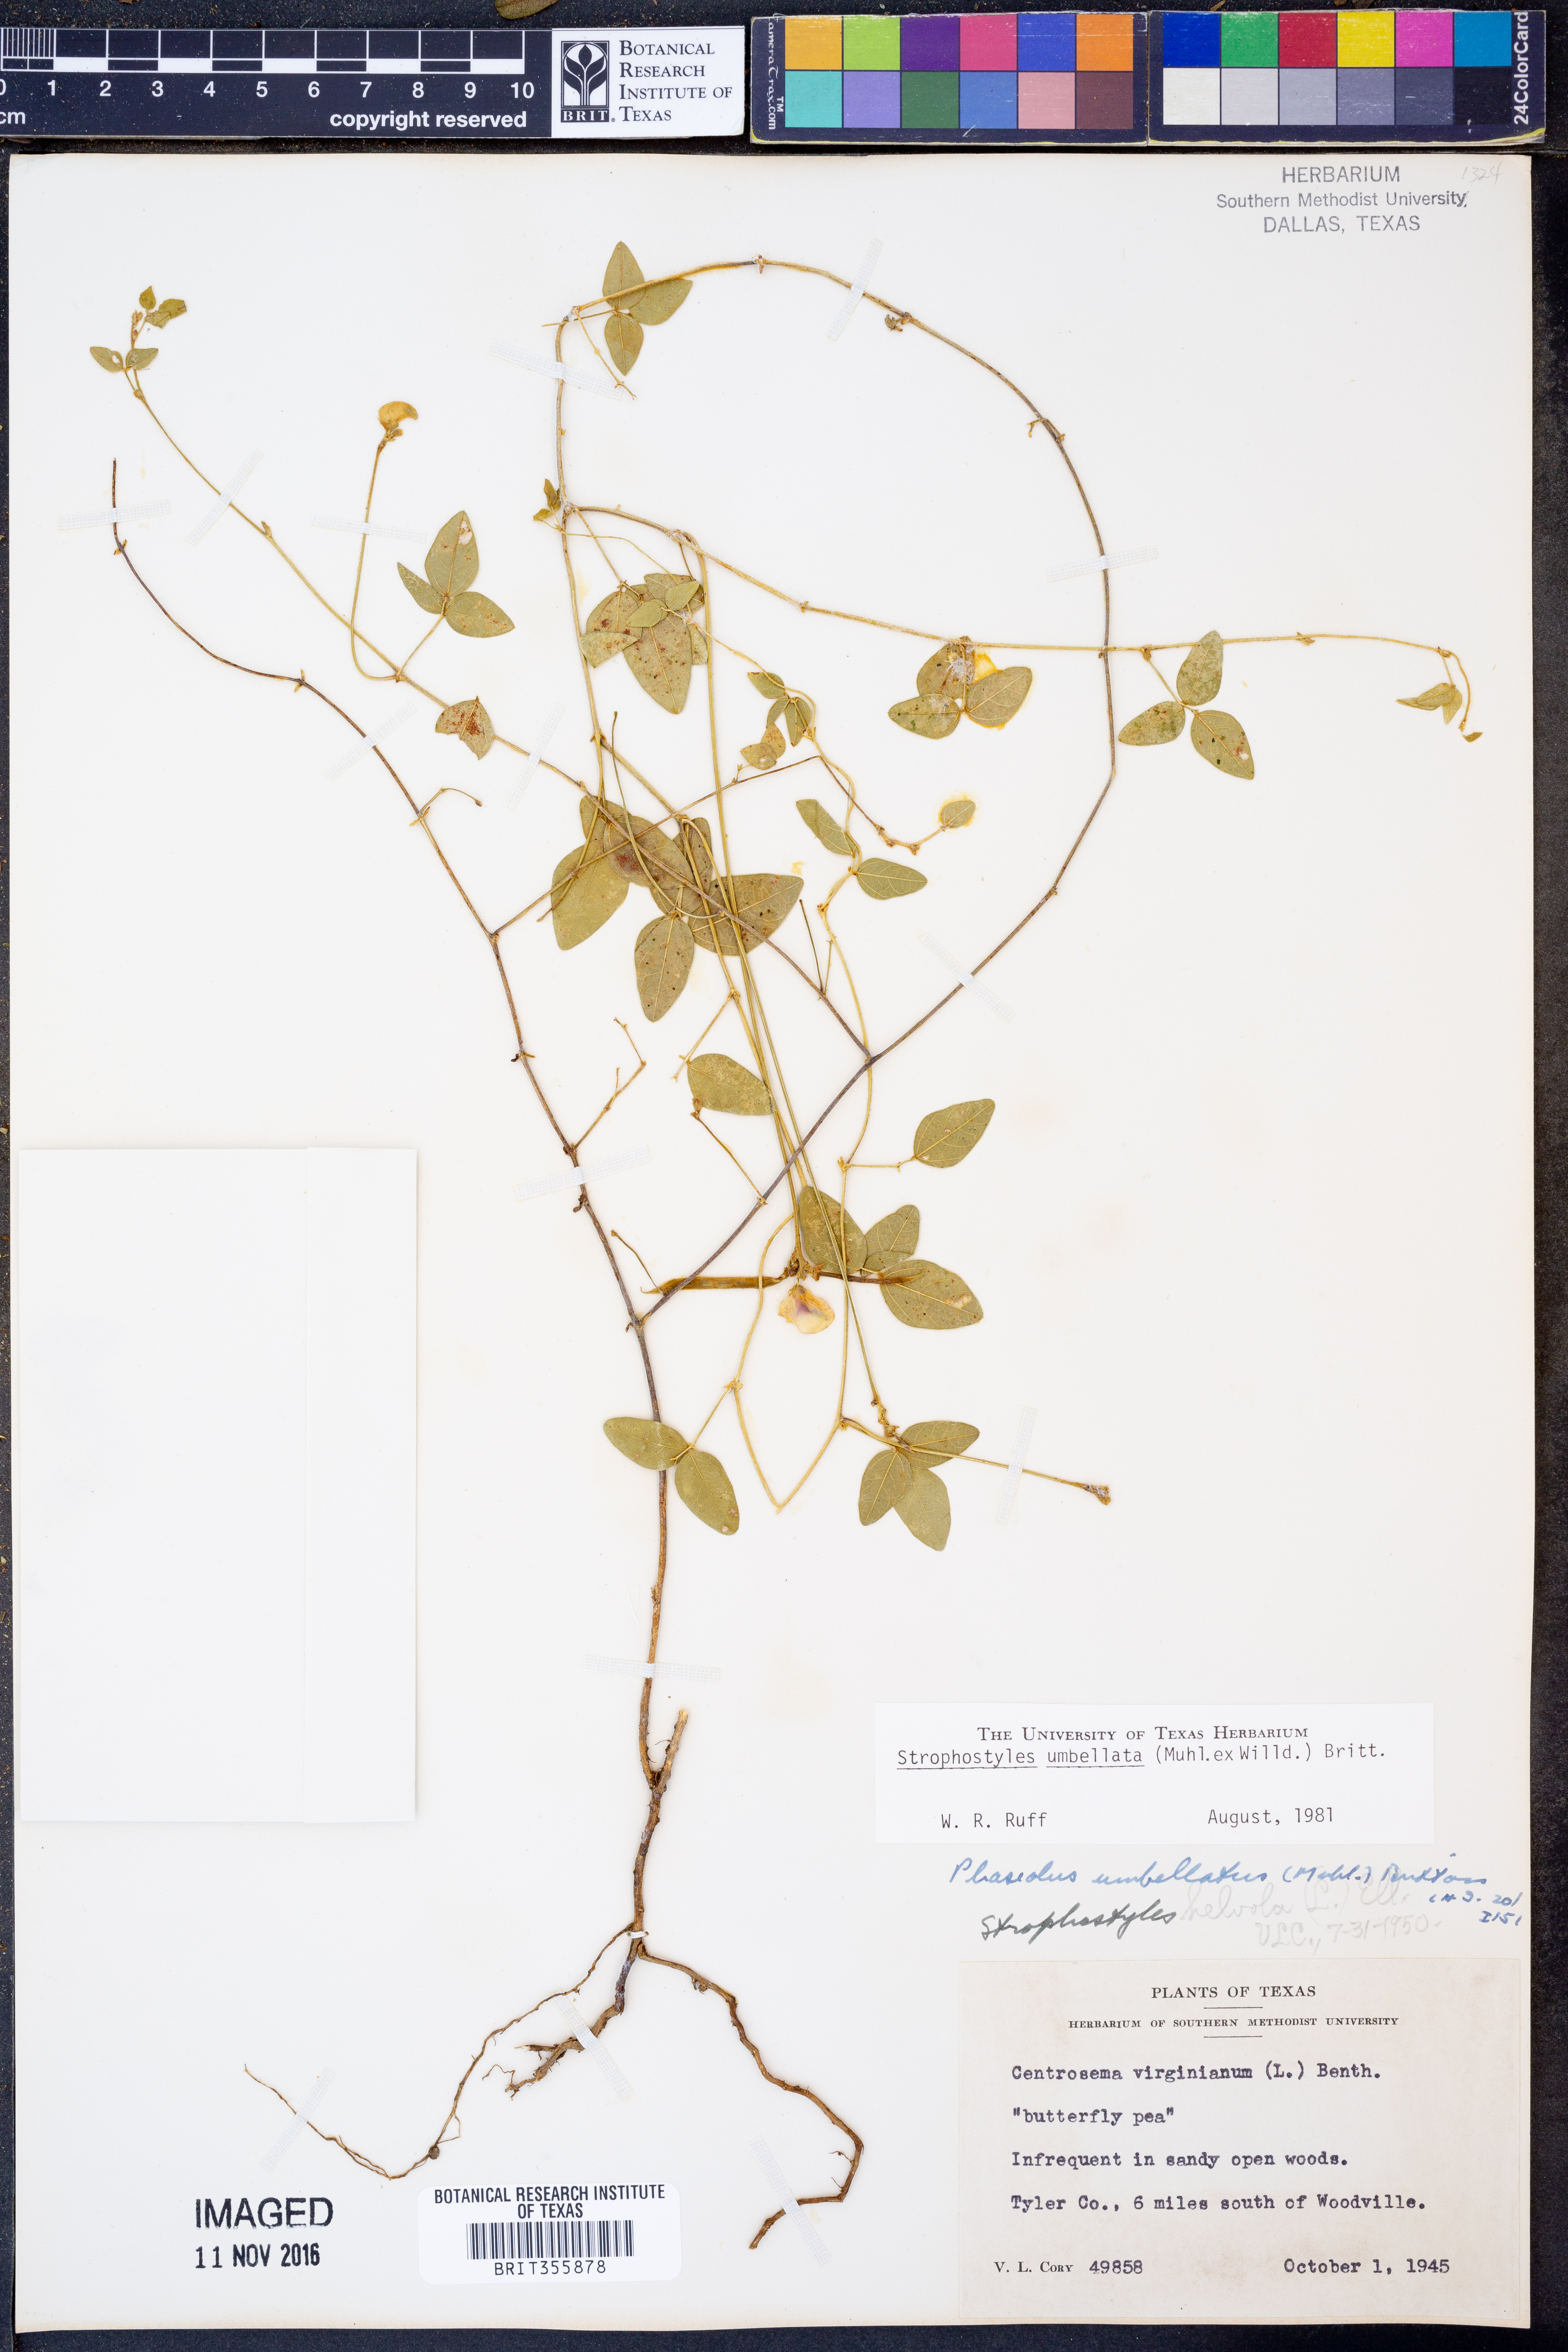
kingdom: Plantae
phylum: Tracheophyta
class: Magnoliopsida
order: Fabales
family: Fabaceae
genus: Strophostyles
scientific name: Strophostyles umbellata
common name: Perennial wild bean
